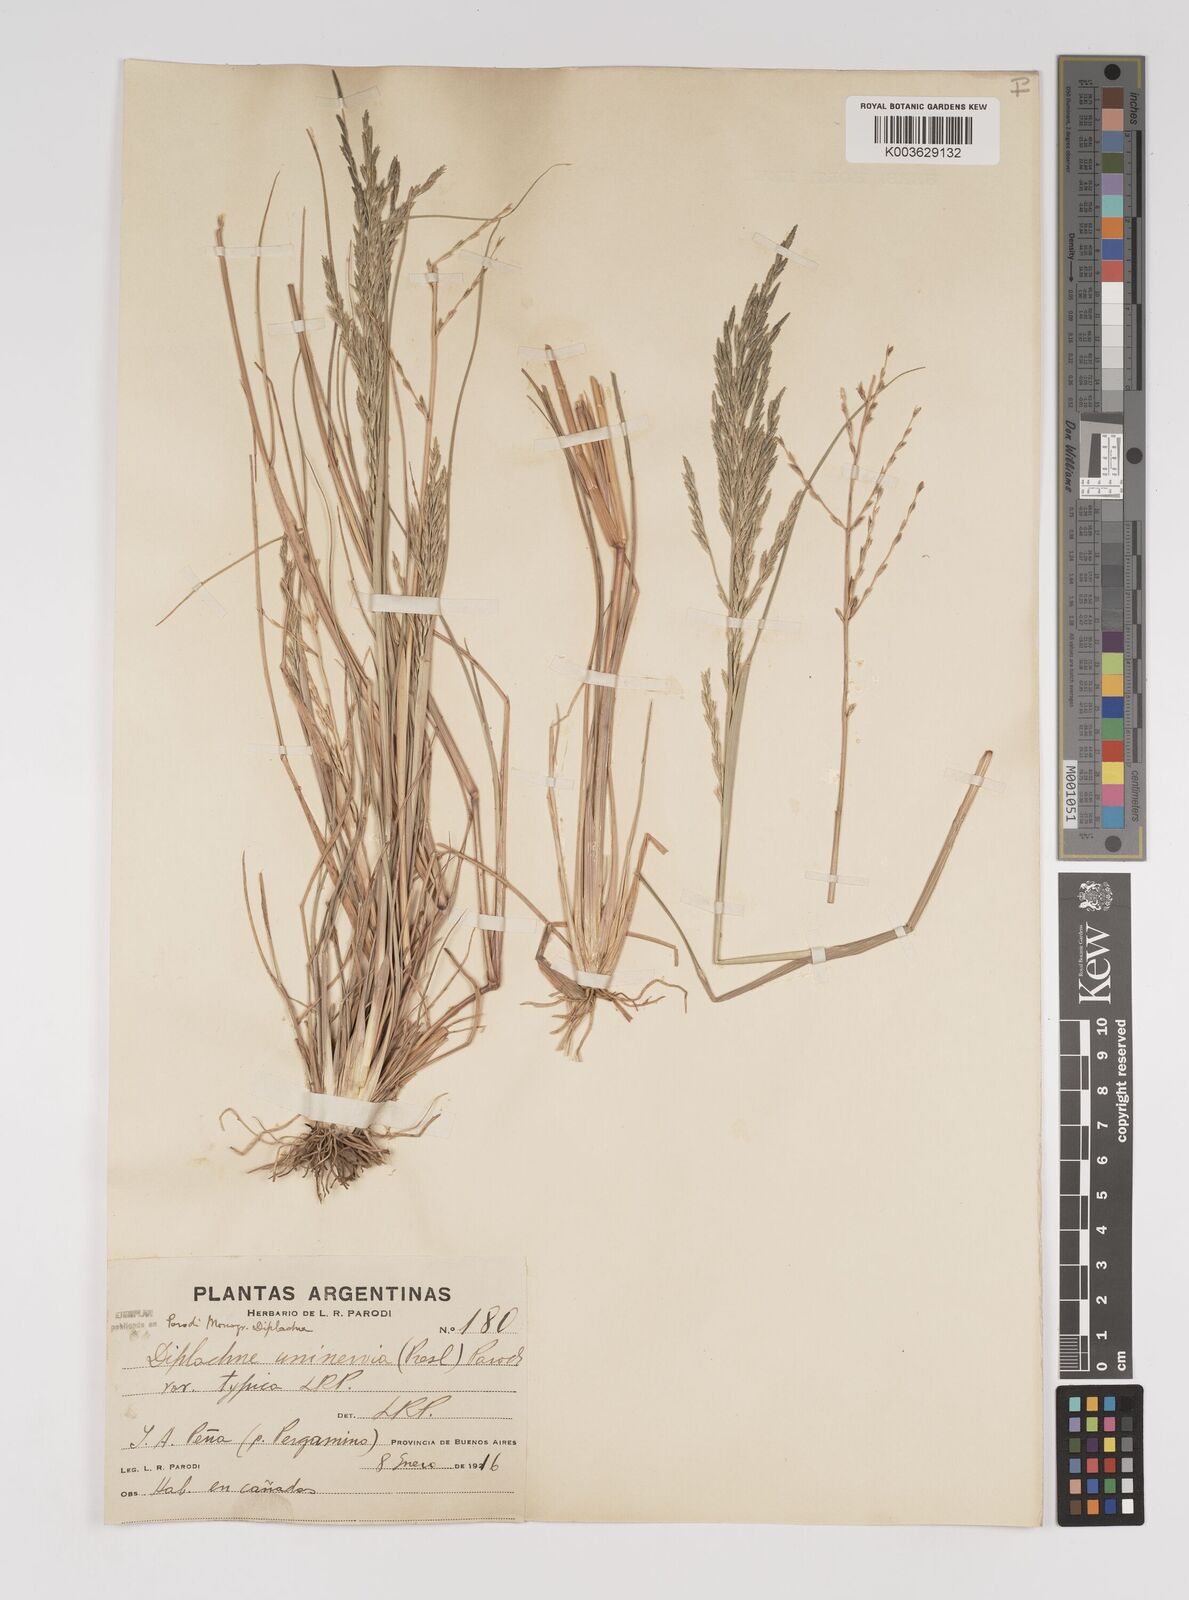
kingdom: Plantae
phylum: Tracheophyta
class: Liliopsida
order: Poales
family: Poaceae
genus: Diplachne
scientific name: Diplachne fusca
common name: Brown beetle grass
